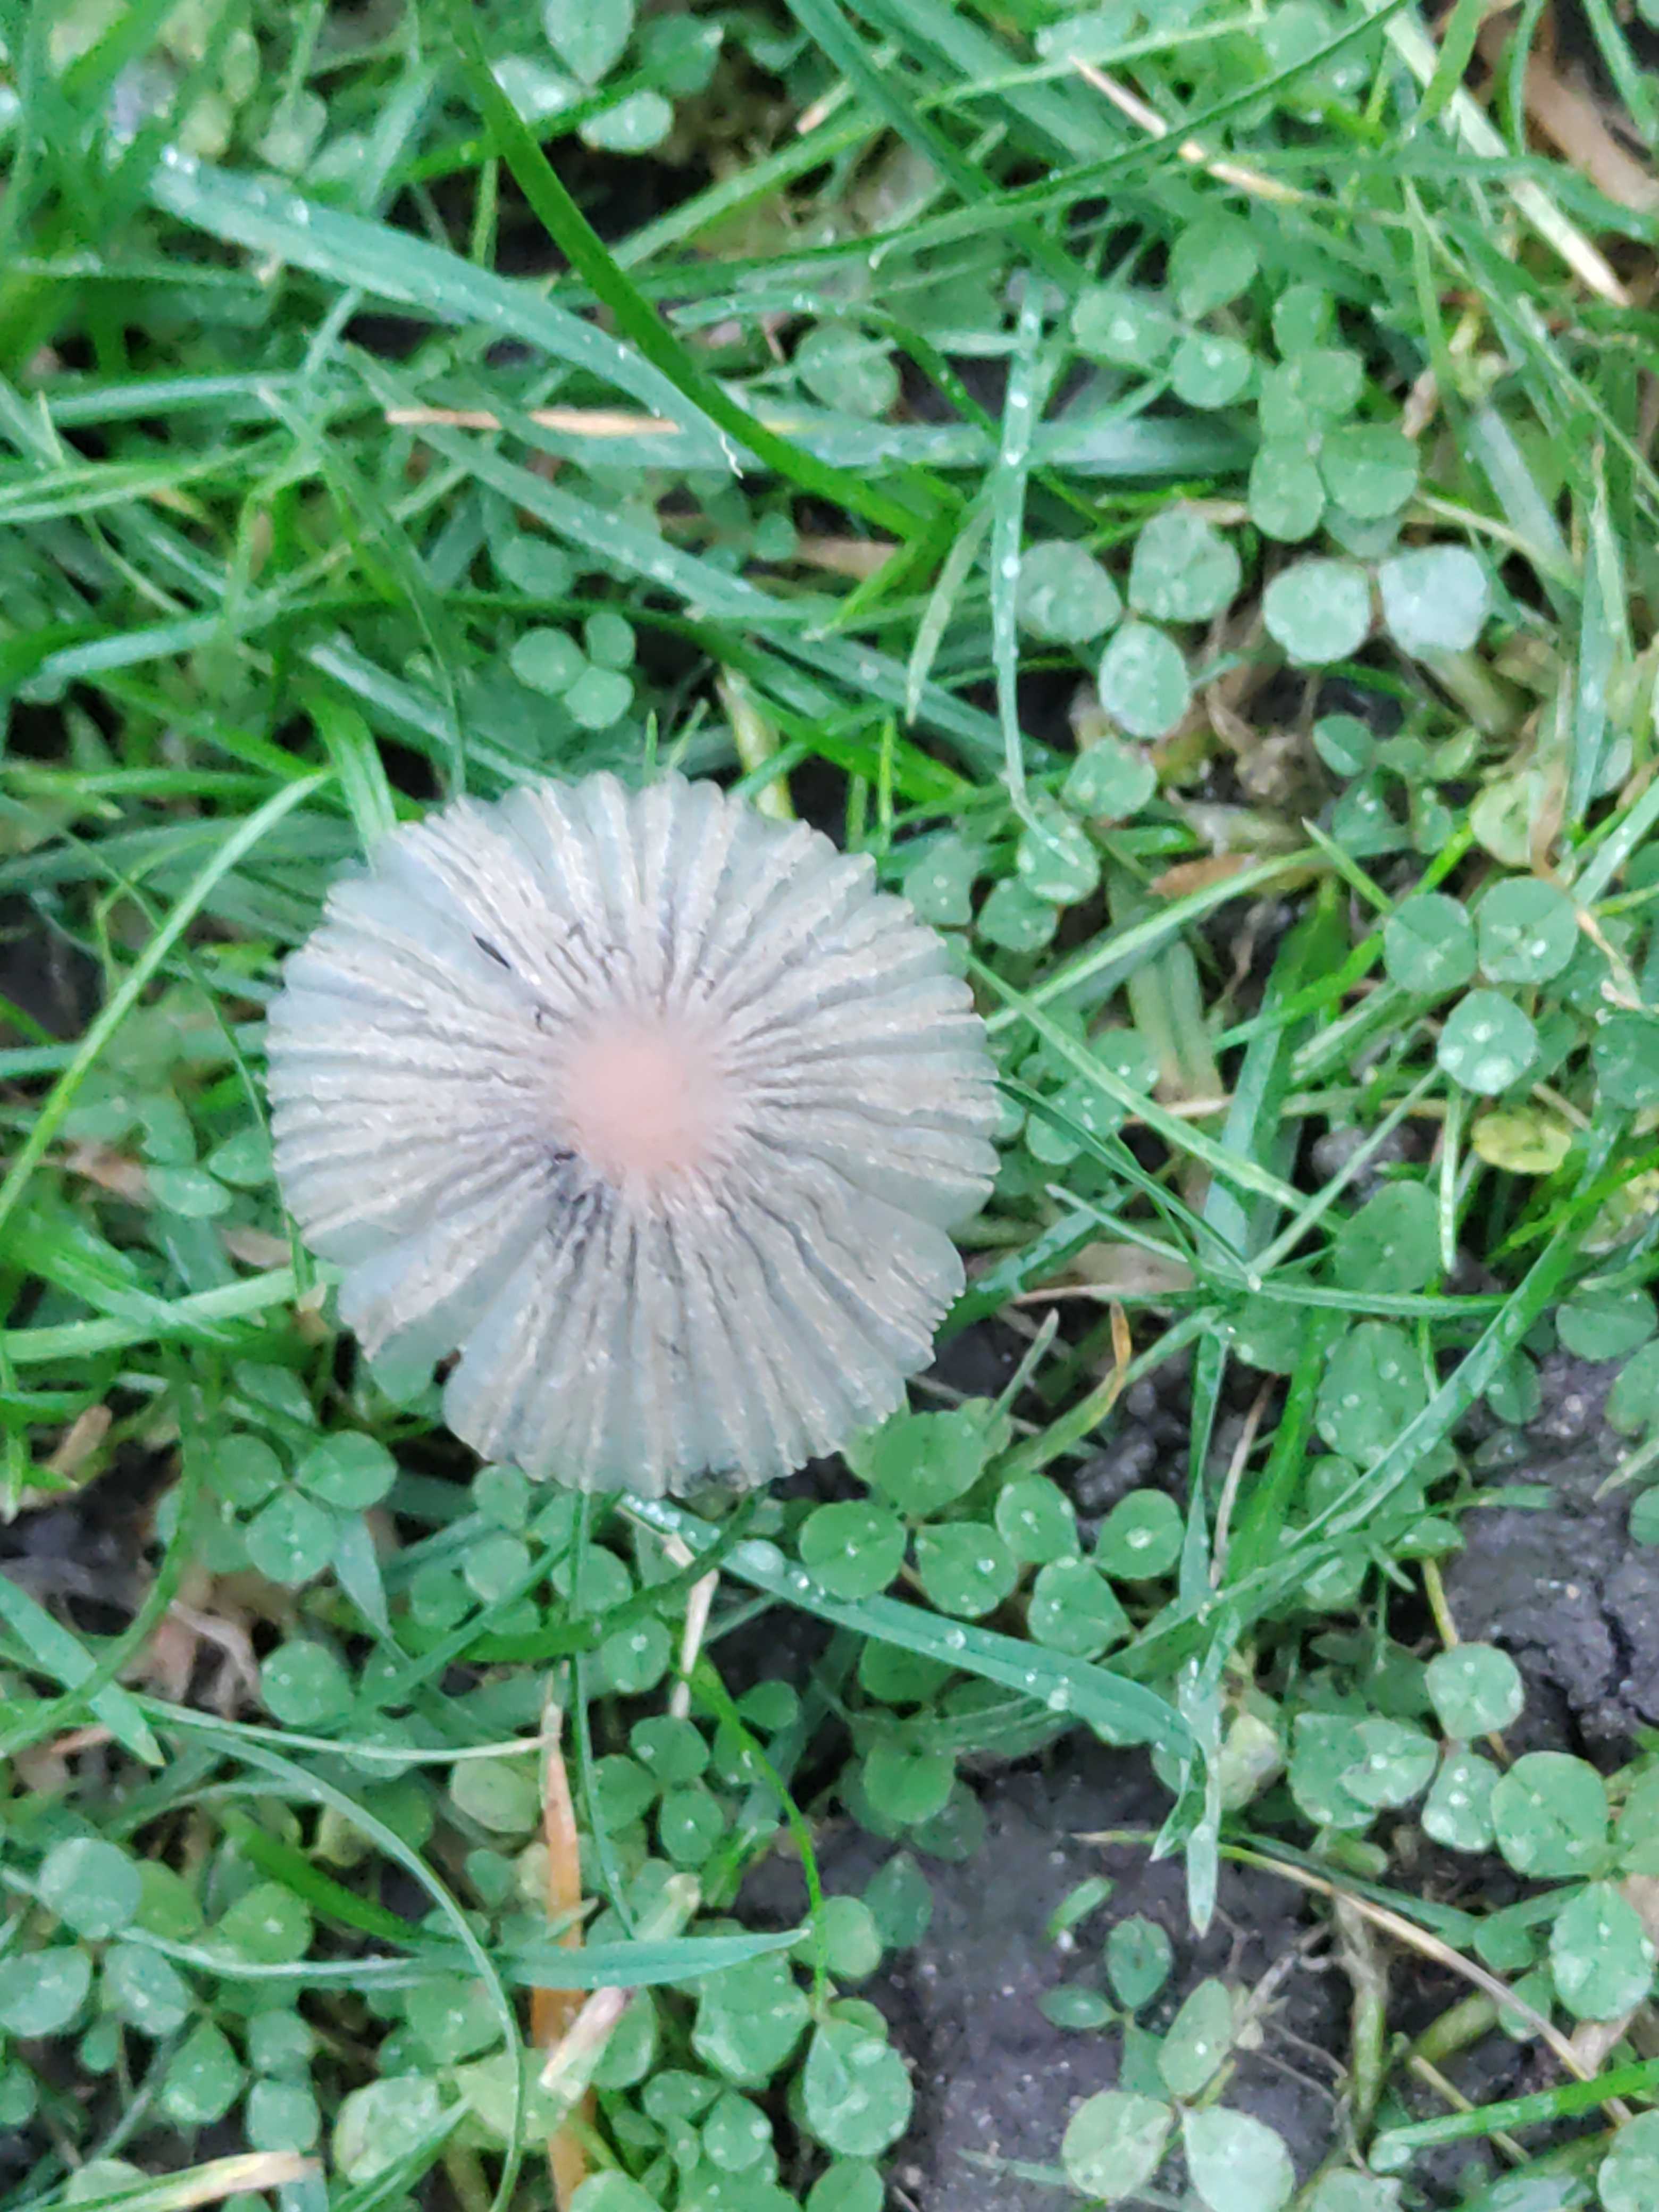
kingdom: Fungi
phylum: Basidiomycota
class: Agaricomycetes
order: Agaricales
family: Psathyrellaceae
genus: Parasola
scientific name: Parasola
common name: hjulhat
